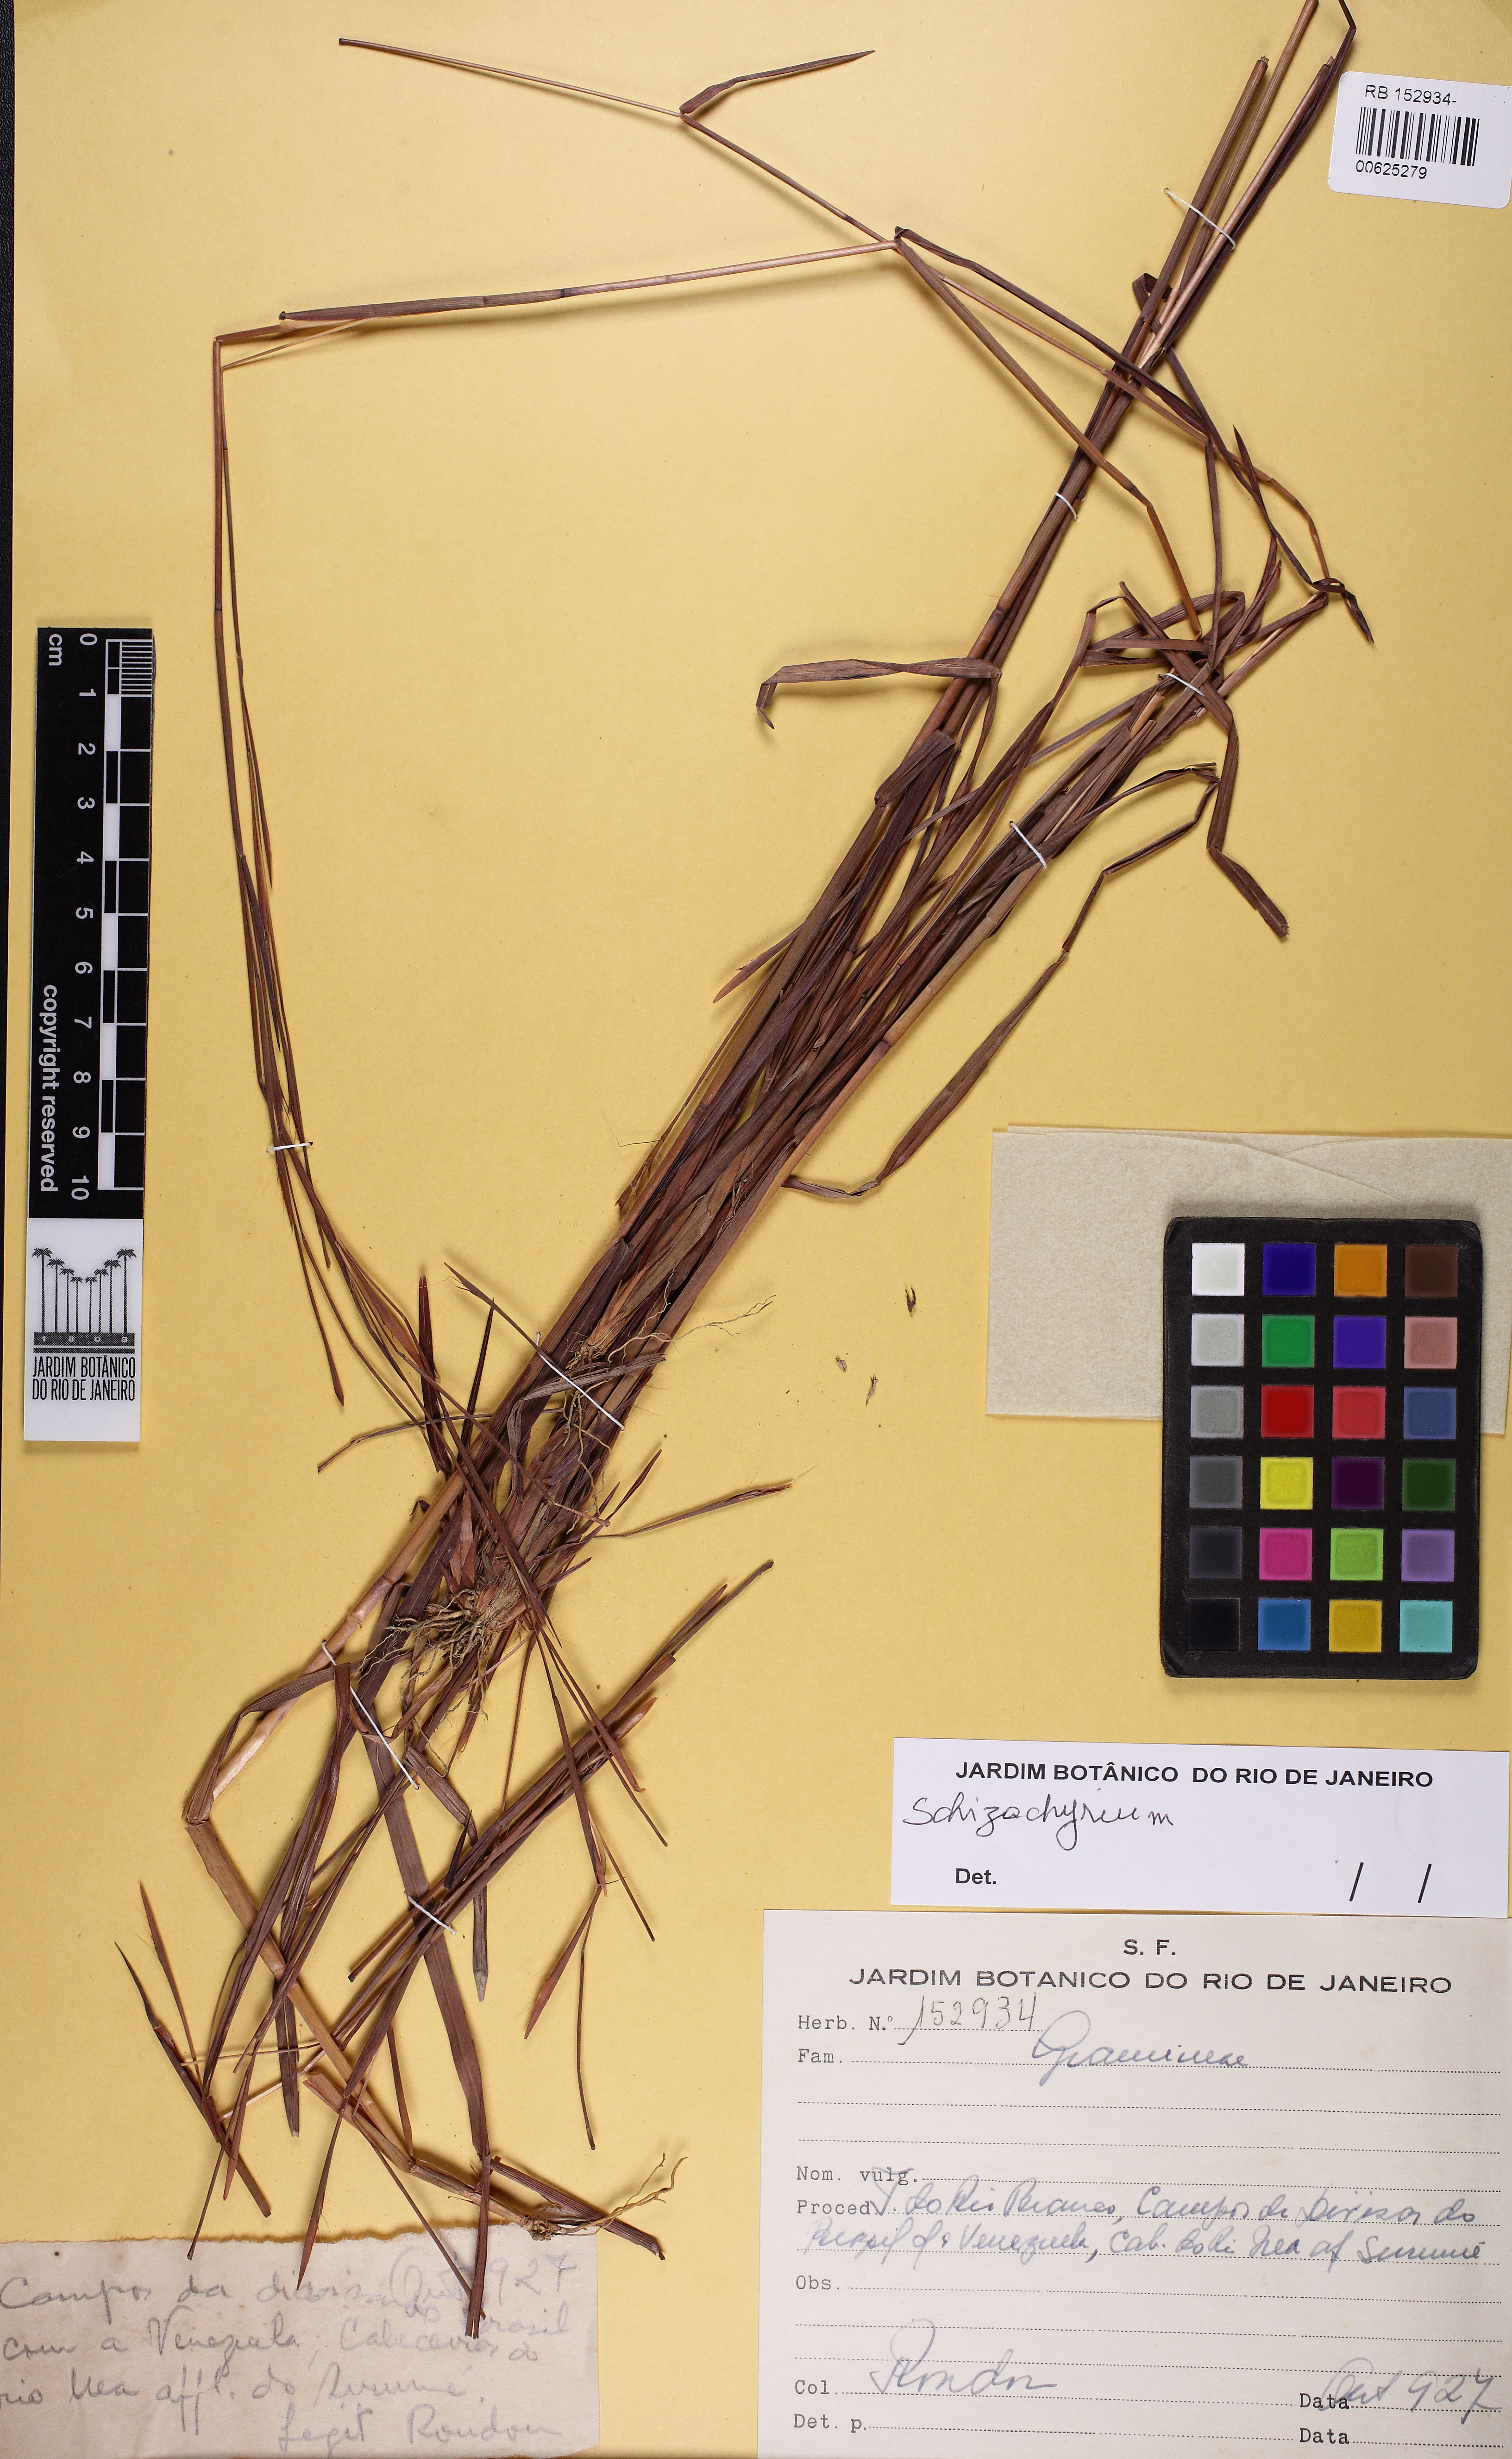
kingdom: Plantae
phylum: Tracheophyta
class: Liliopsida
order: Poales
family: Poaceae
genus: Schizachyrium
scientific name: Schizachyrium
